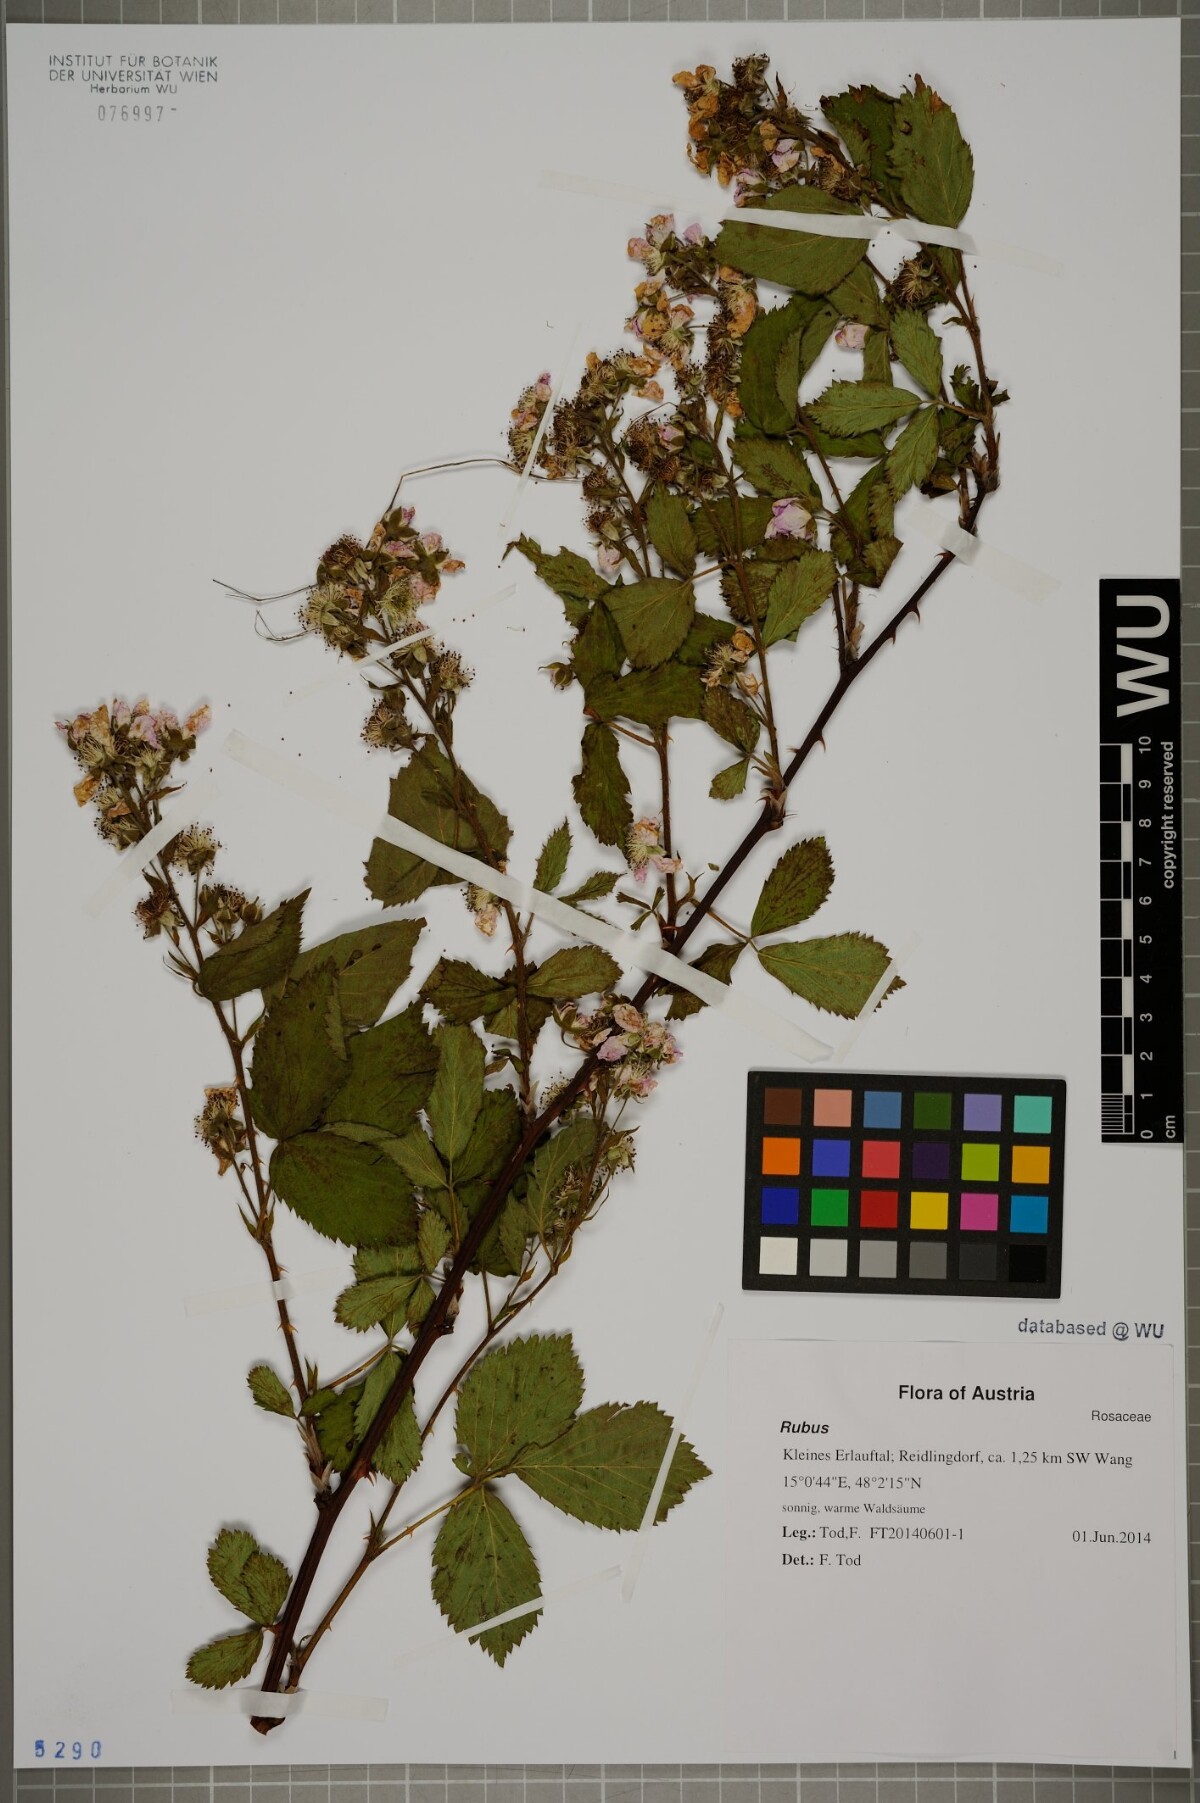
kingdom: Plantae
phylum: Tracheophyta
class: Magnoliopsida
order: Rosales
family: Rosaceae
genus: Rubus
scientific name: Rubus
